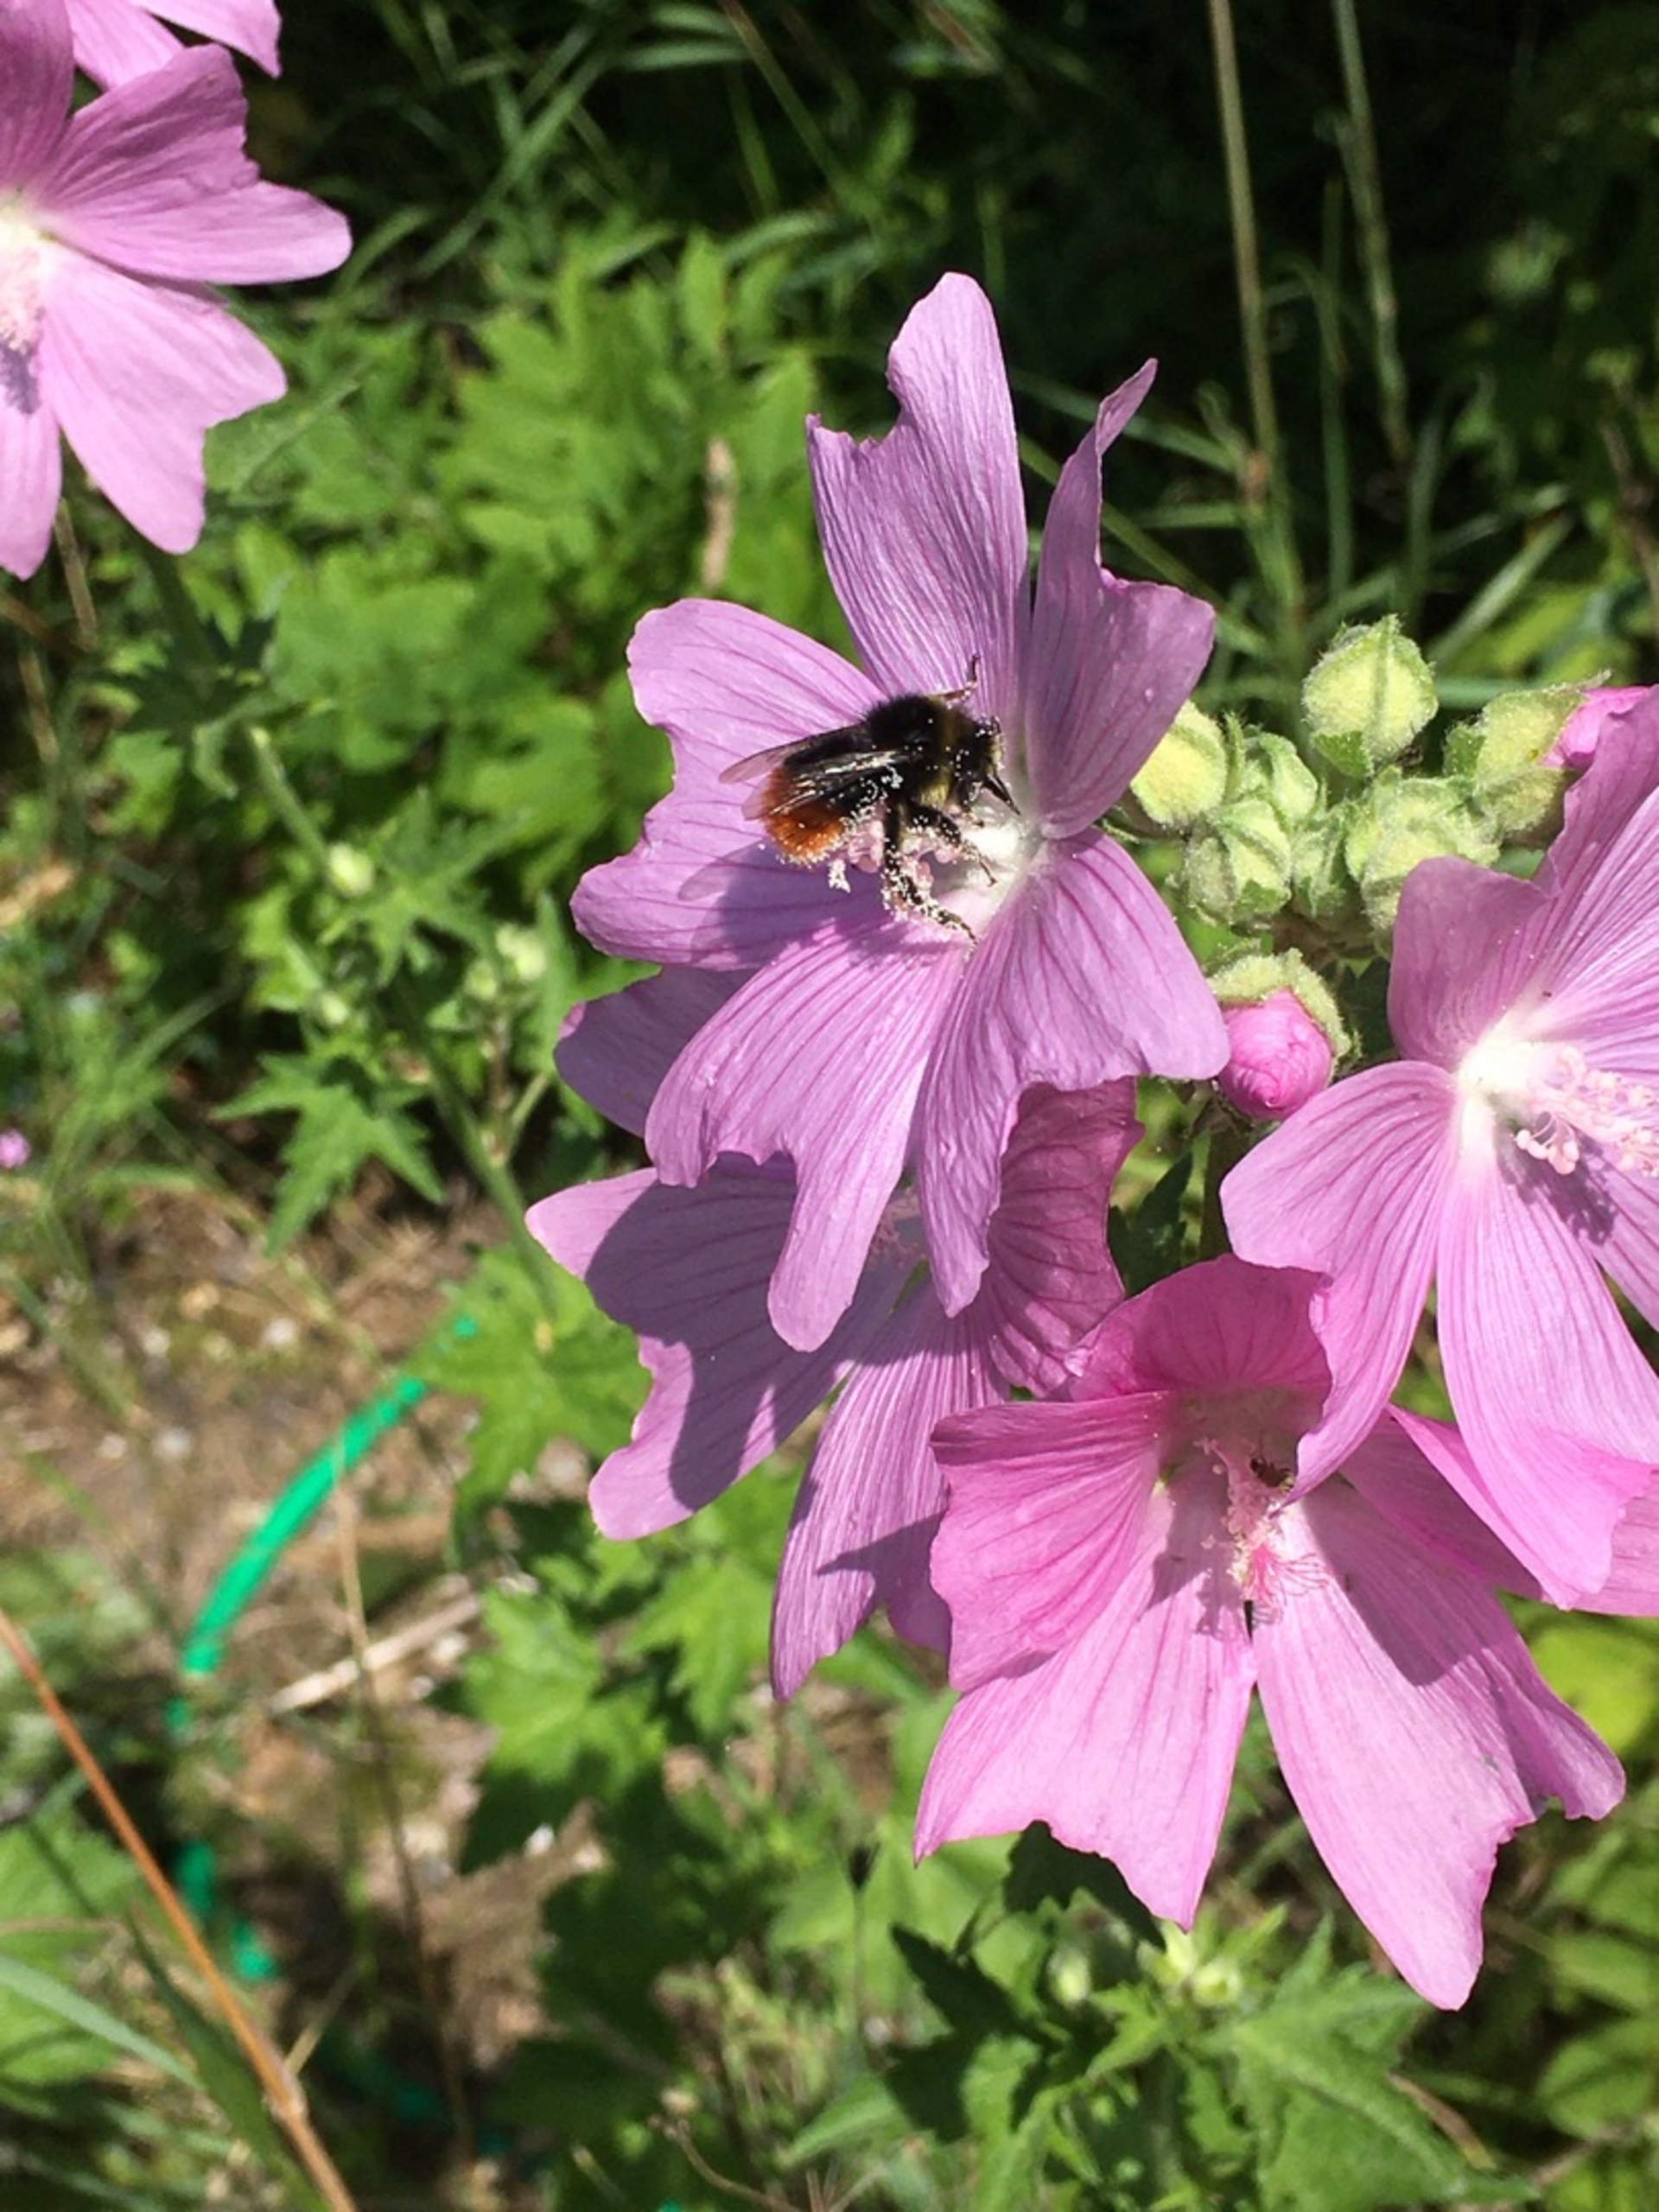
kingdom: Animalia
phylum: Arthropoda
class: Insecta
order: Hymenoptera
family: Apidae
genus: Bombus
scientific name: Bombus lapidarius
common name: Stenhumle
